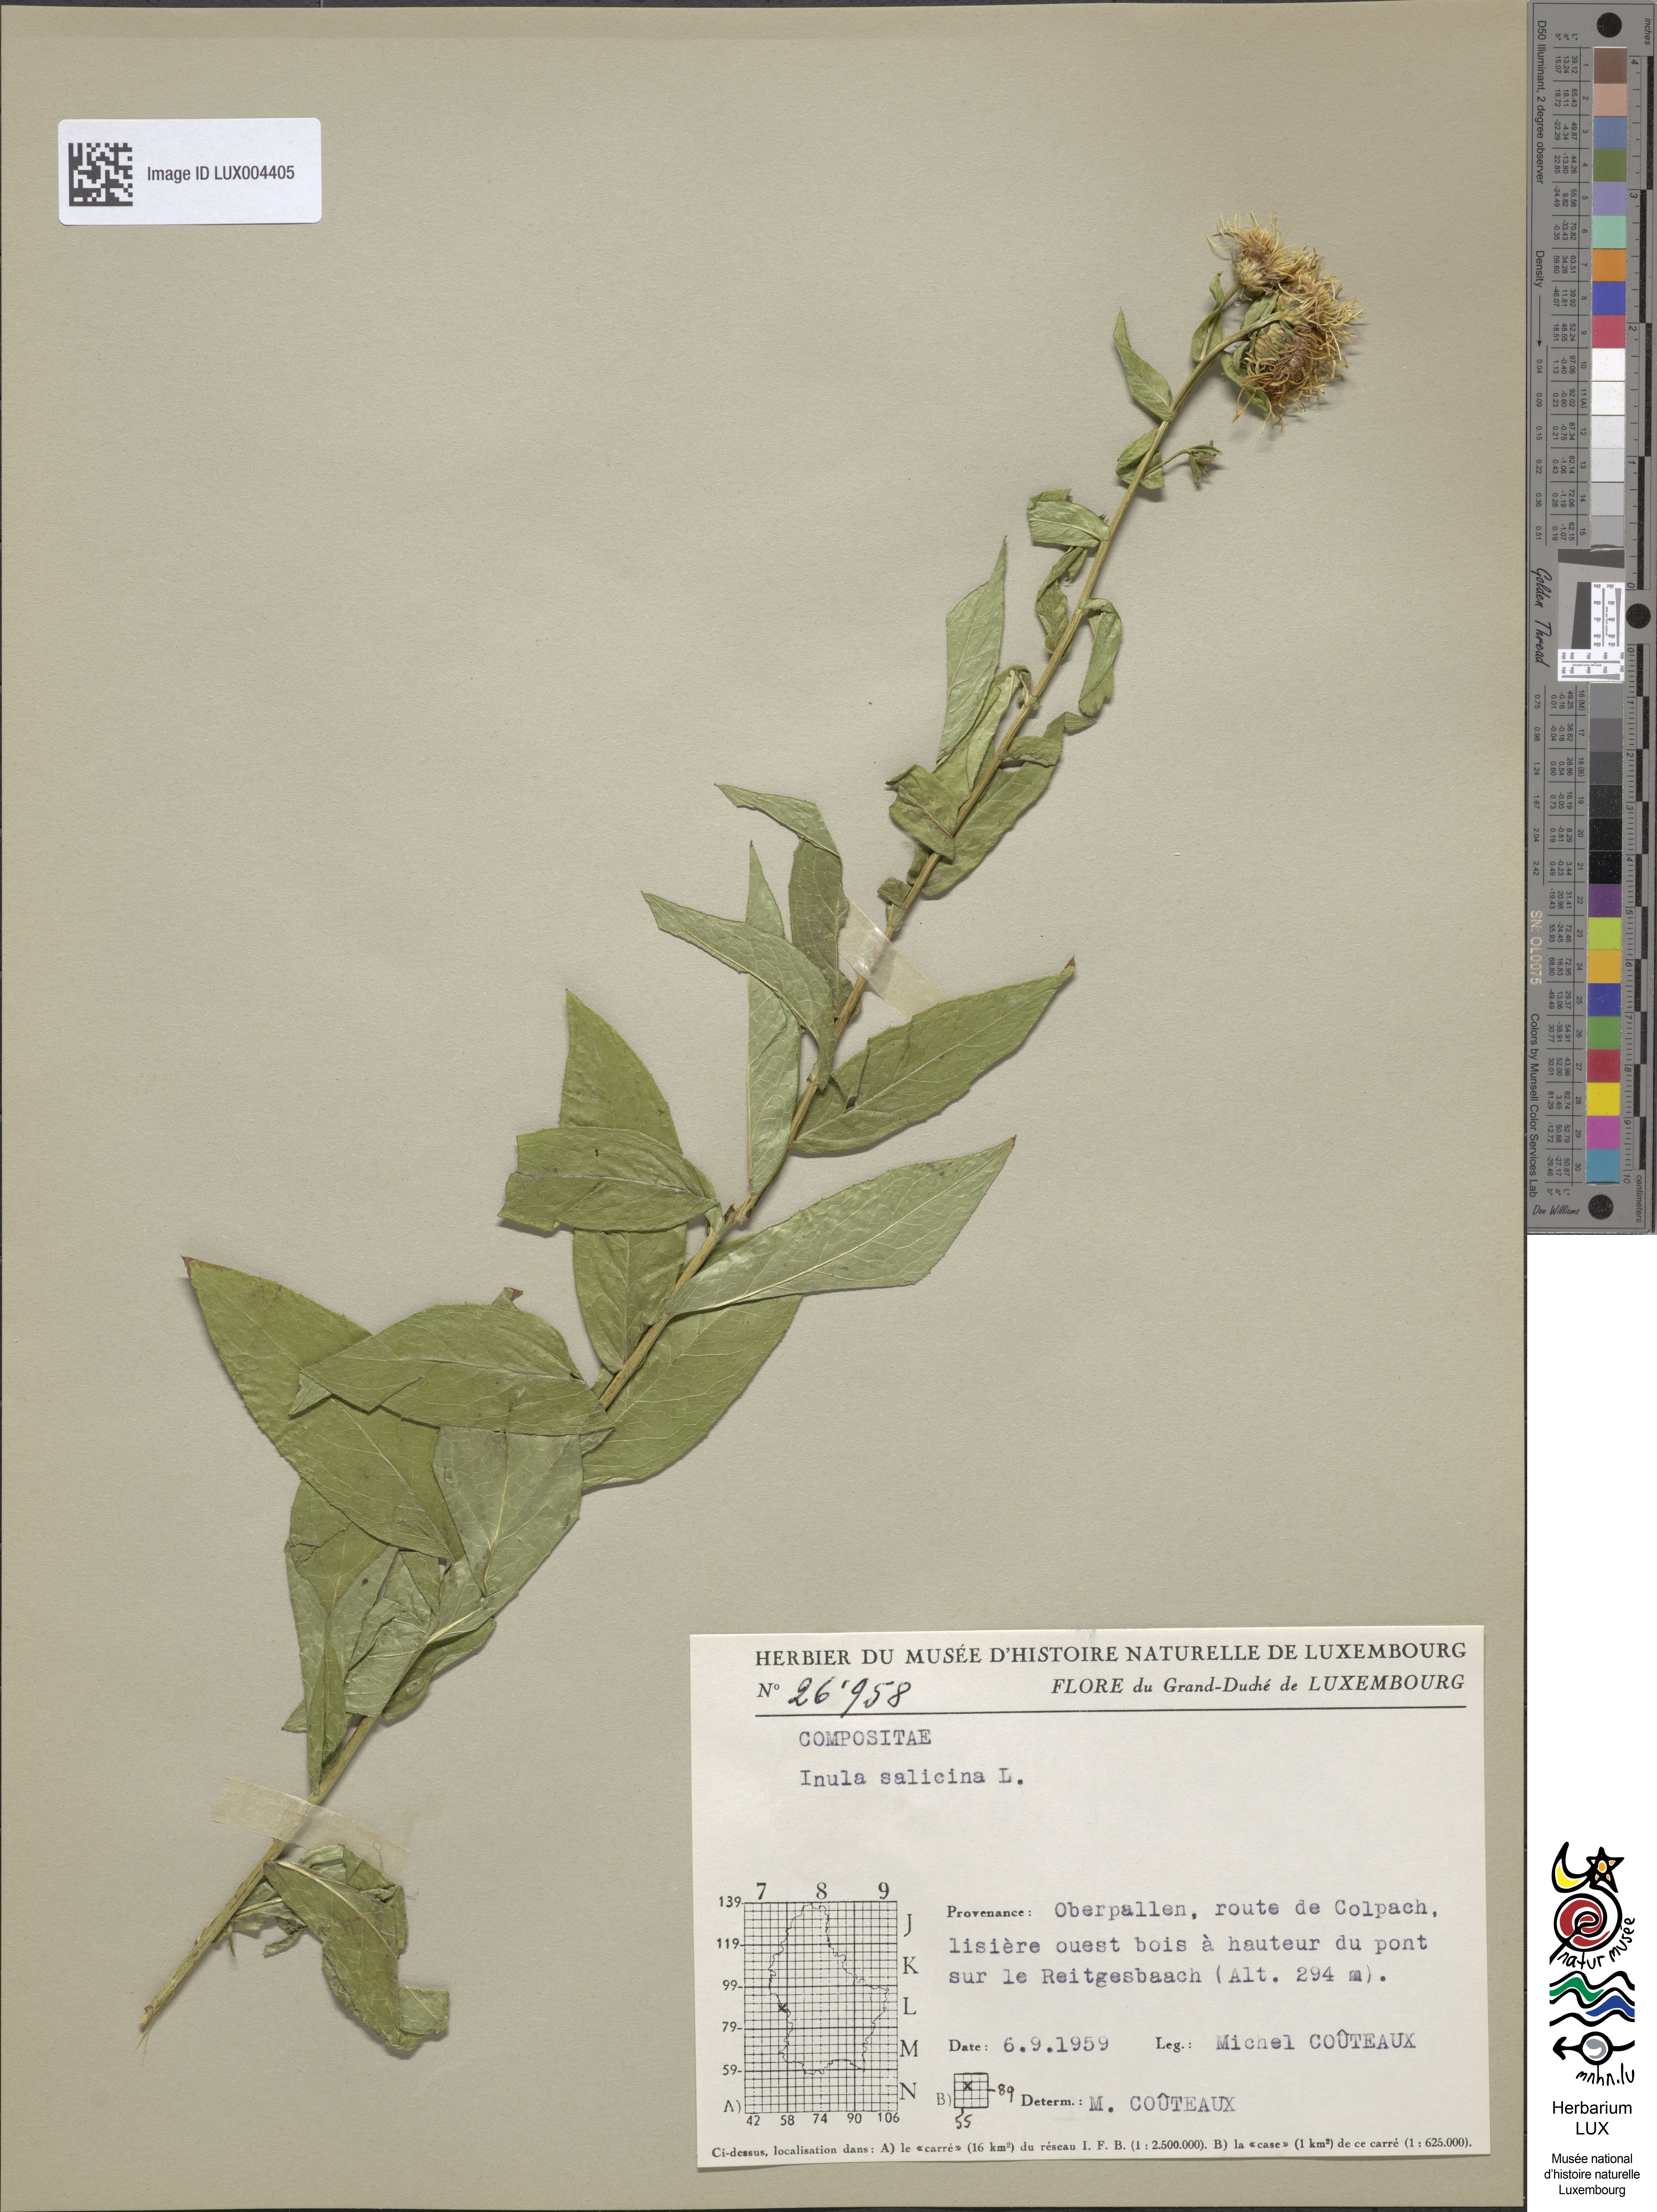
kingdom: Plantae
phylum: Tracheophyta
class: Magnoliopsida
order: Asterales
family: Asteraceae
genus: Pentanema
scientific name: Pentanema salicinum
